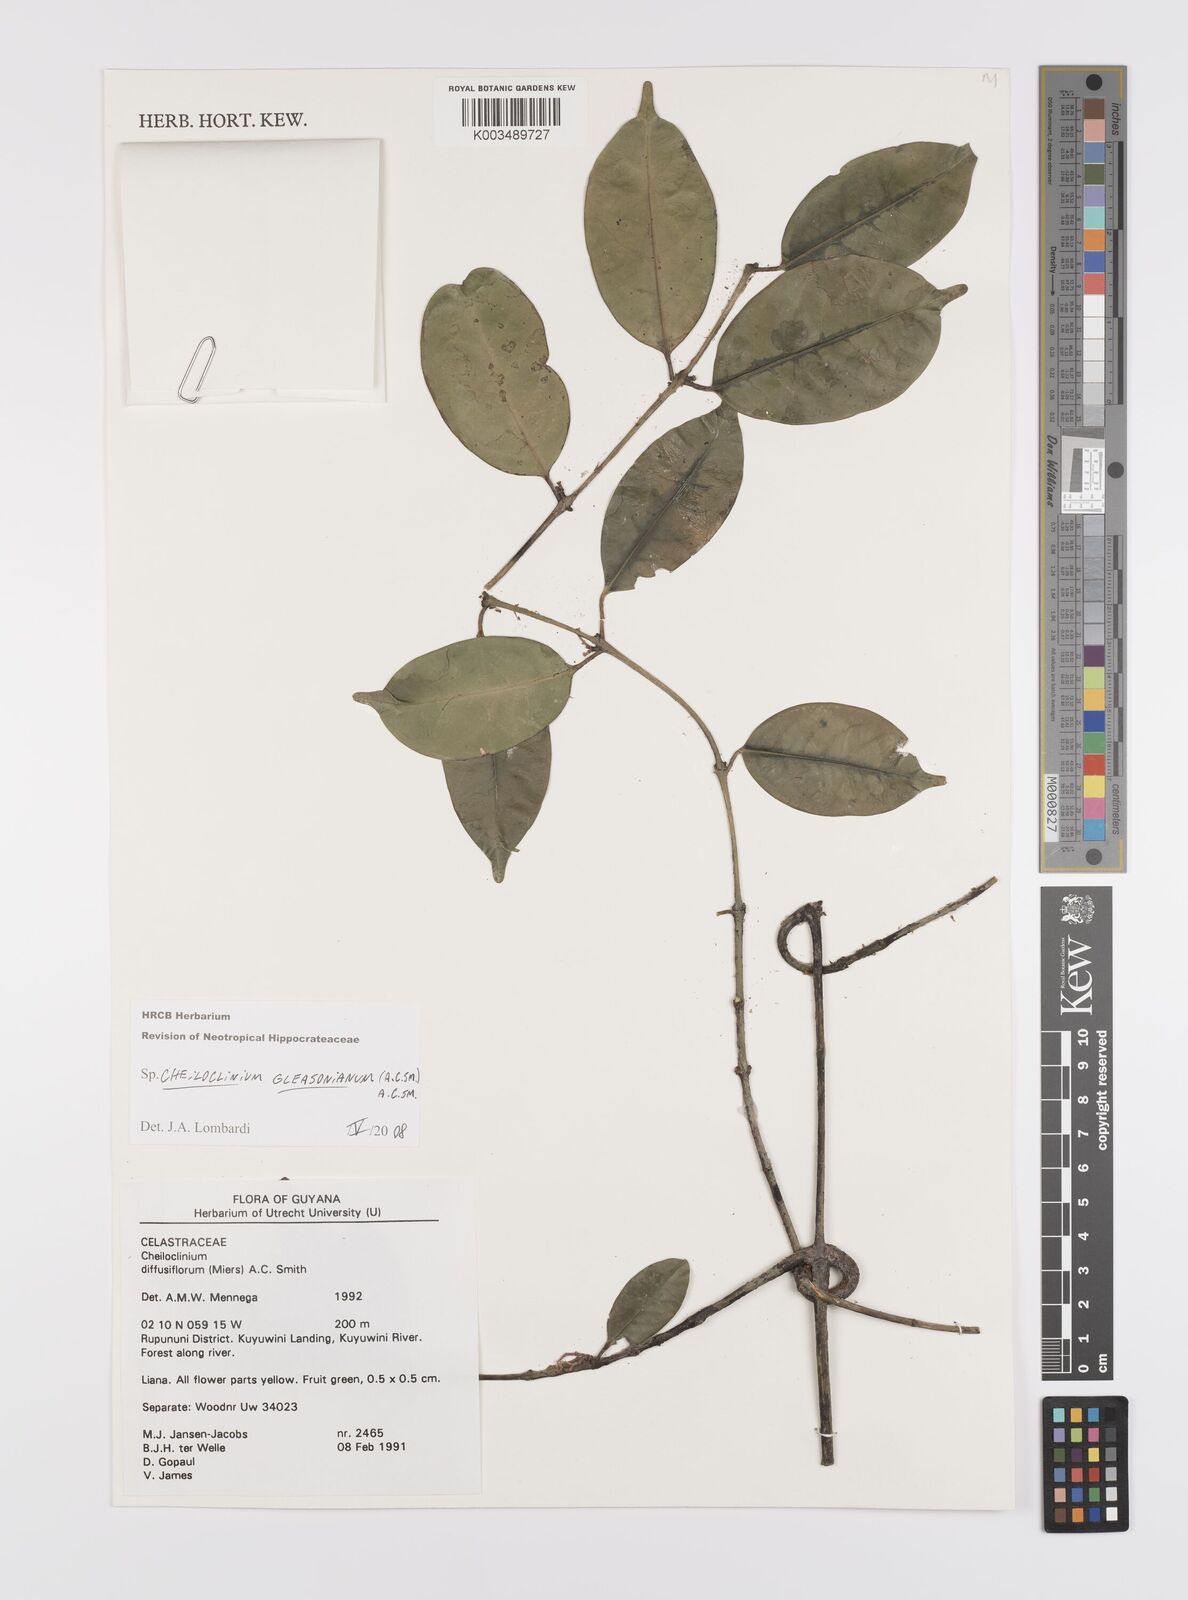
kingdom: Plantae
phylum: Tracheophyta
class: Magnoliopsida
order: Celastrales
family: Celastraceae
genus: Cheiloclinium
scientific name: Cheiloclinium gleasonianum
